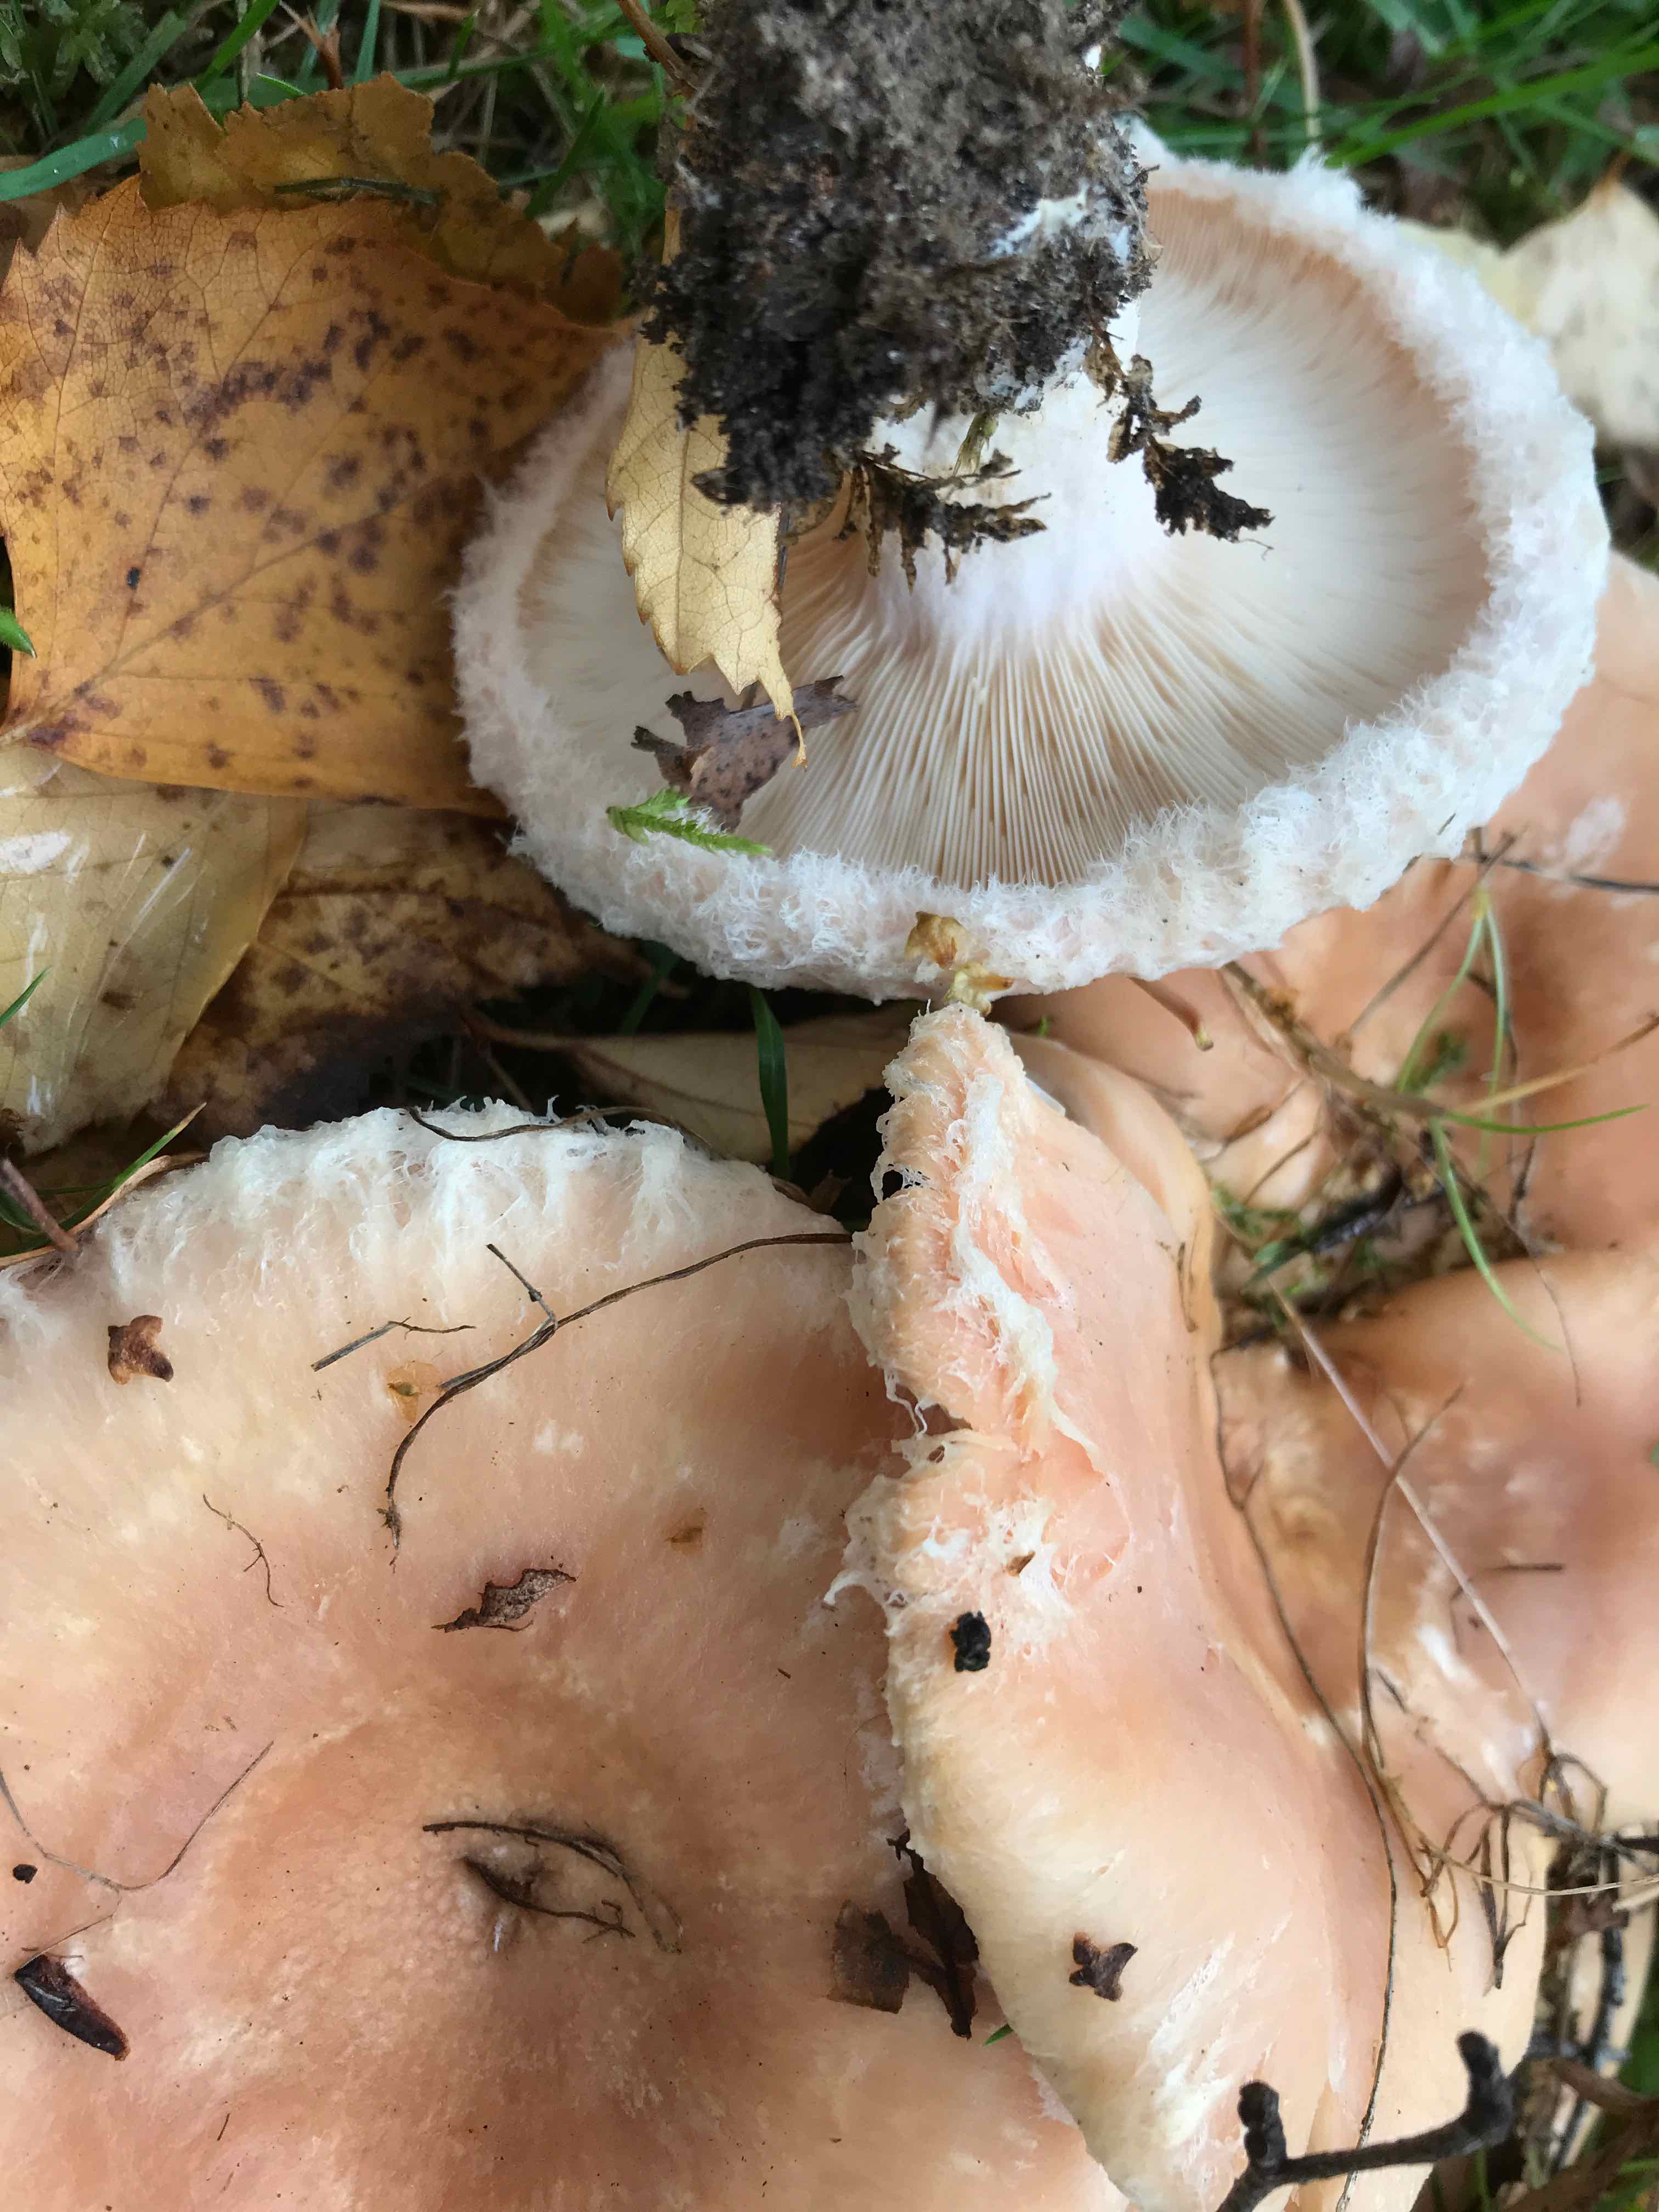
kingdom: Fungi
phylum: Basidiomycota
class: Agaricomycetes
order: Russulales
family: Russulaceae
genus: Lactarius
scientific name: Lactarius pubescens
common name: dunet mælkehat
